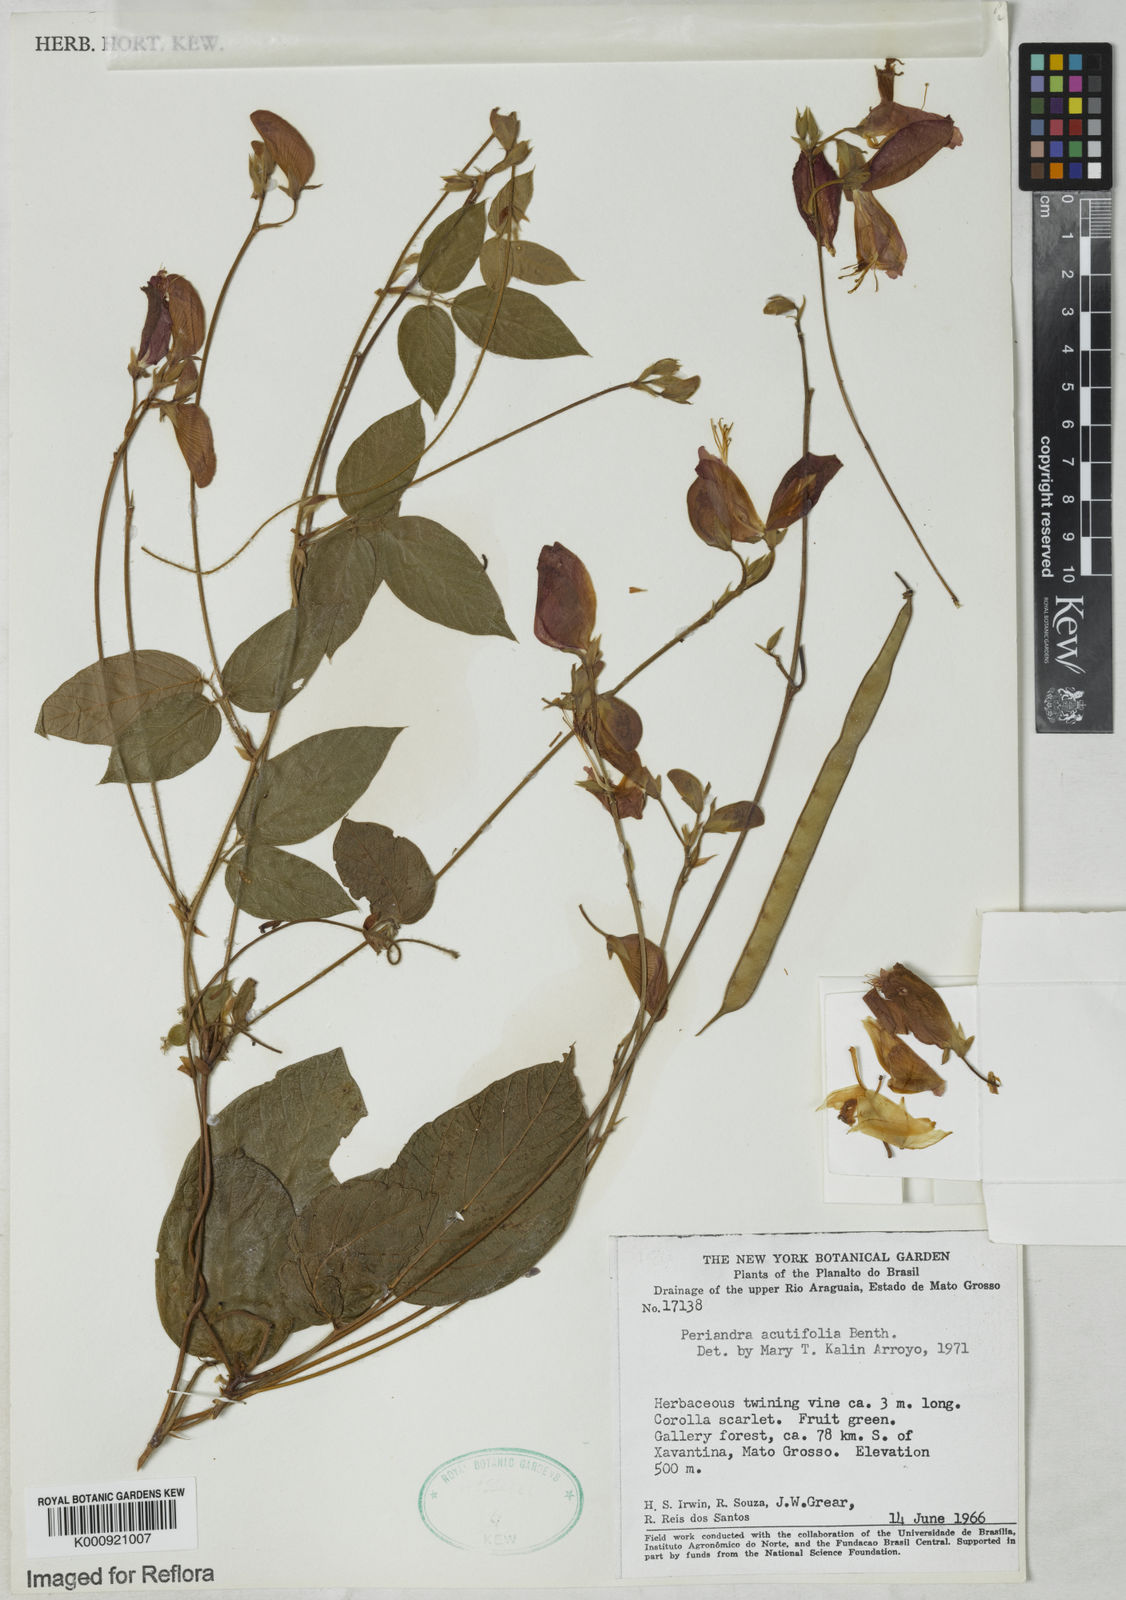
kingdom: Plantae
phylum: Tracheophyta
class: Magnoliopsida
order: Fabales
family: Fabaceae
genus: Periandra
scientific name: Periandra coccinea
